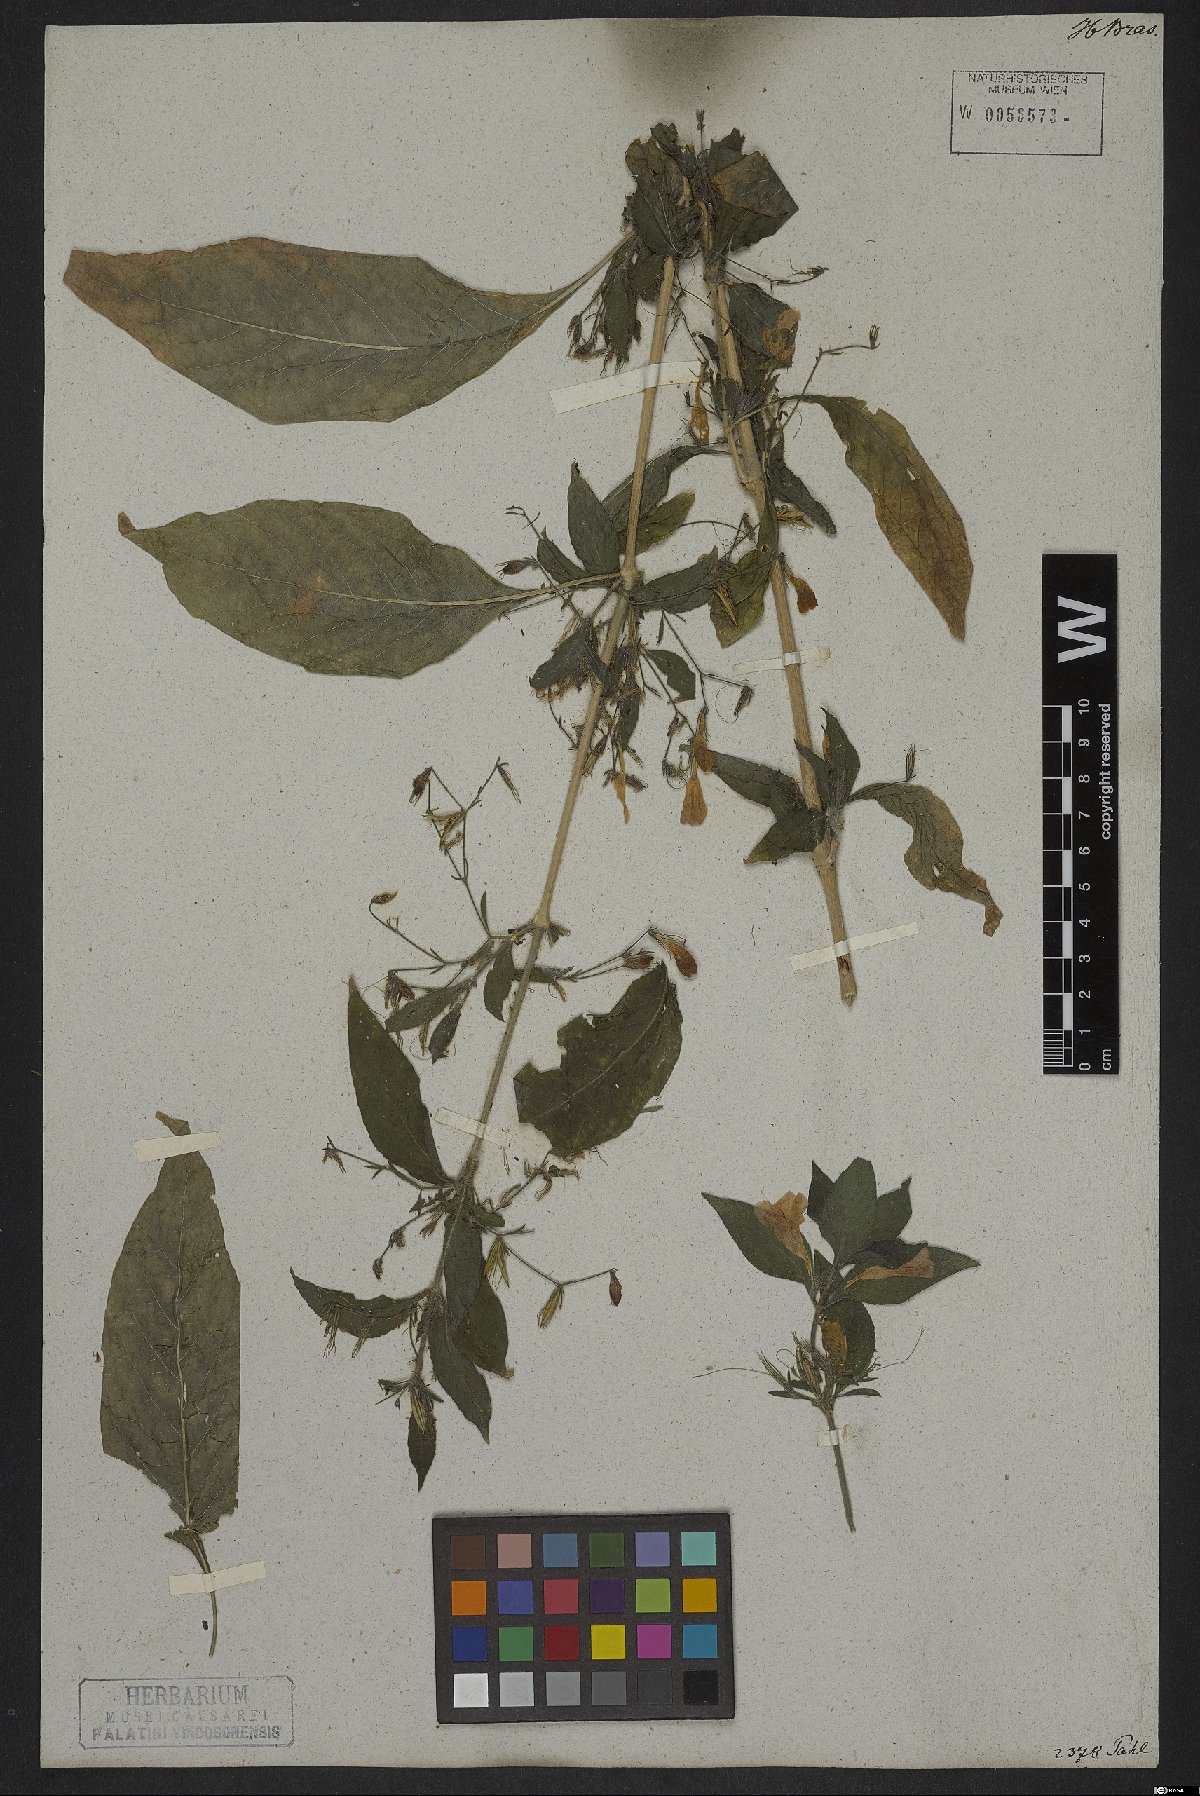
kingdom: Plantae
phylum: Tracheophyta
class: Magnoliopsida
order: Lamiales
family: Acanthaceae
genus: Ruellia
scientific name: Ruellia viscidula
